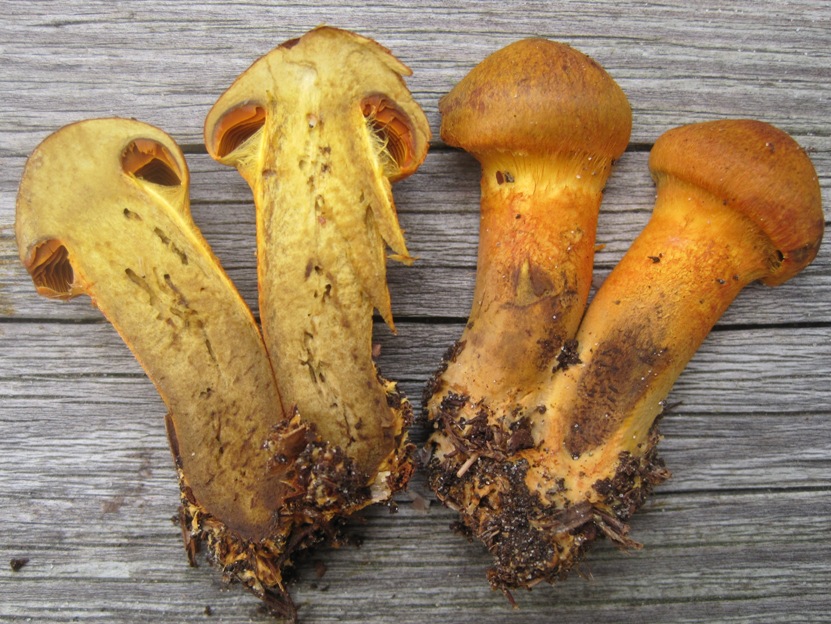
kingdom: Fungi
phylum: Basidiomycota
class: Agaricomycetes
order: Agaricales
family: Cortinariaceae
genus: Cortinarius
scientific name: Cortinarius malicorius
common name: grønkødet slørhat
